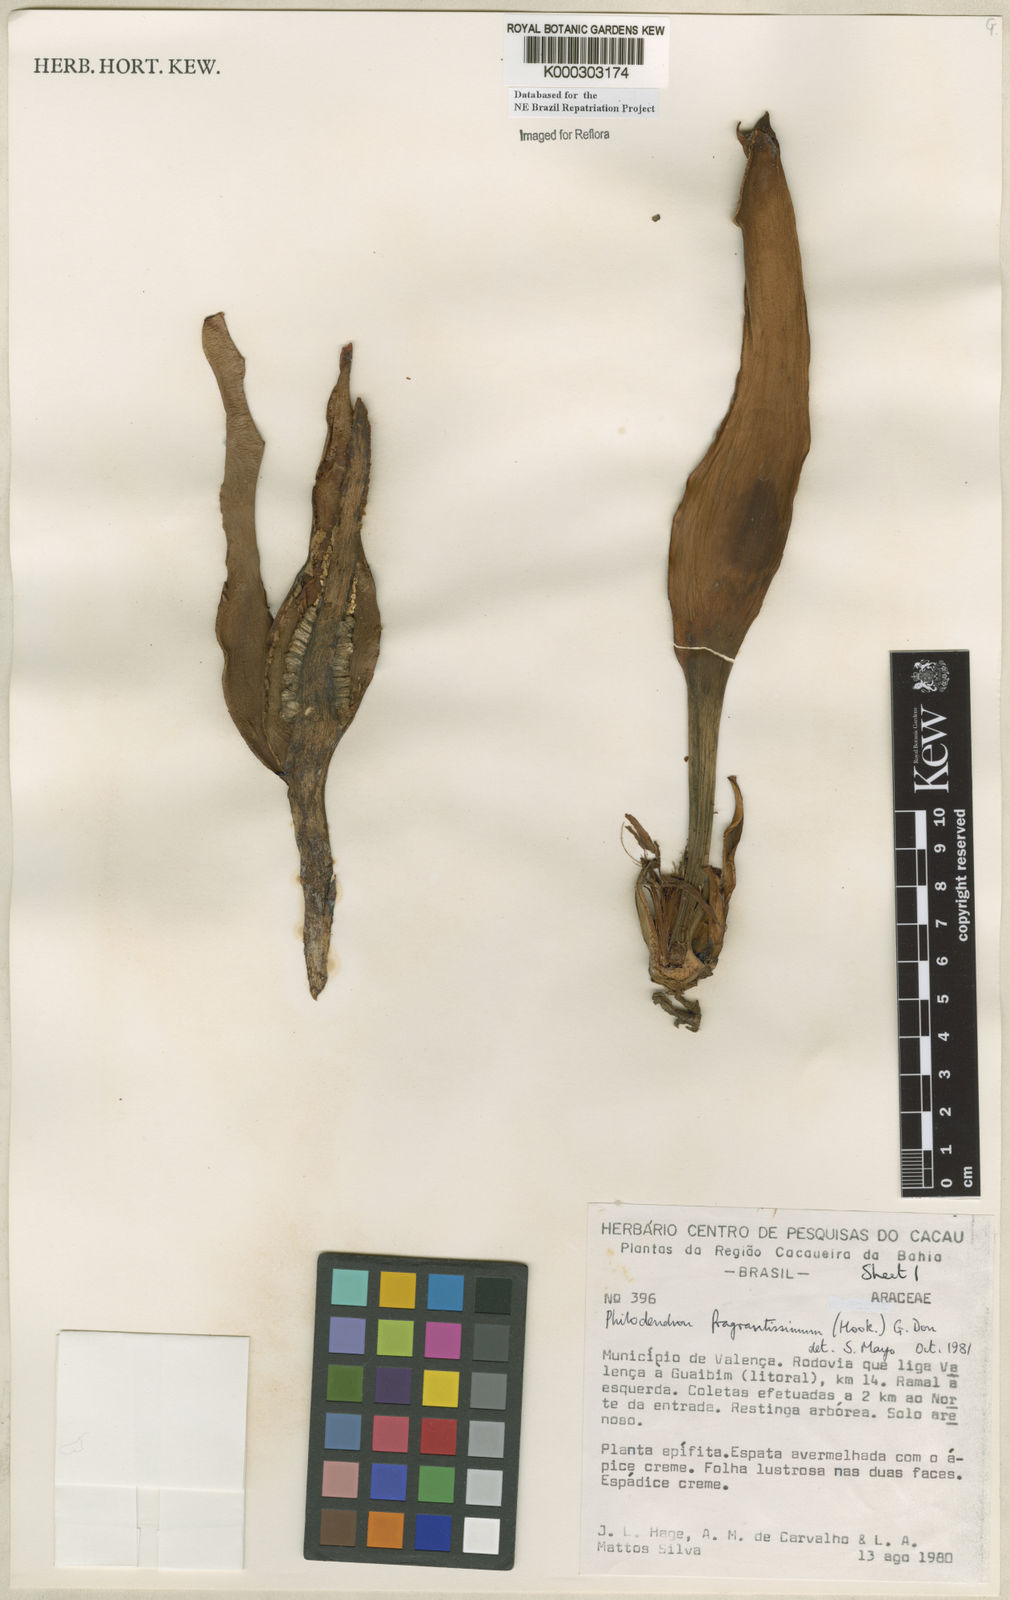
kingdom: Plantae
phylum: Tracheophyta
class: Liliopsida
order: Alismatales
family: Araceae
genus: Philodendron
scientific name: Philodendron fragrantissimum
